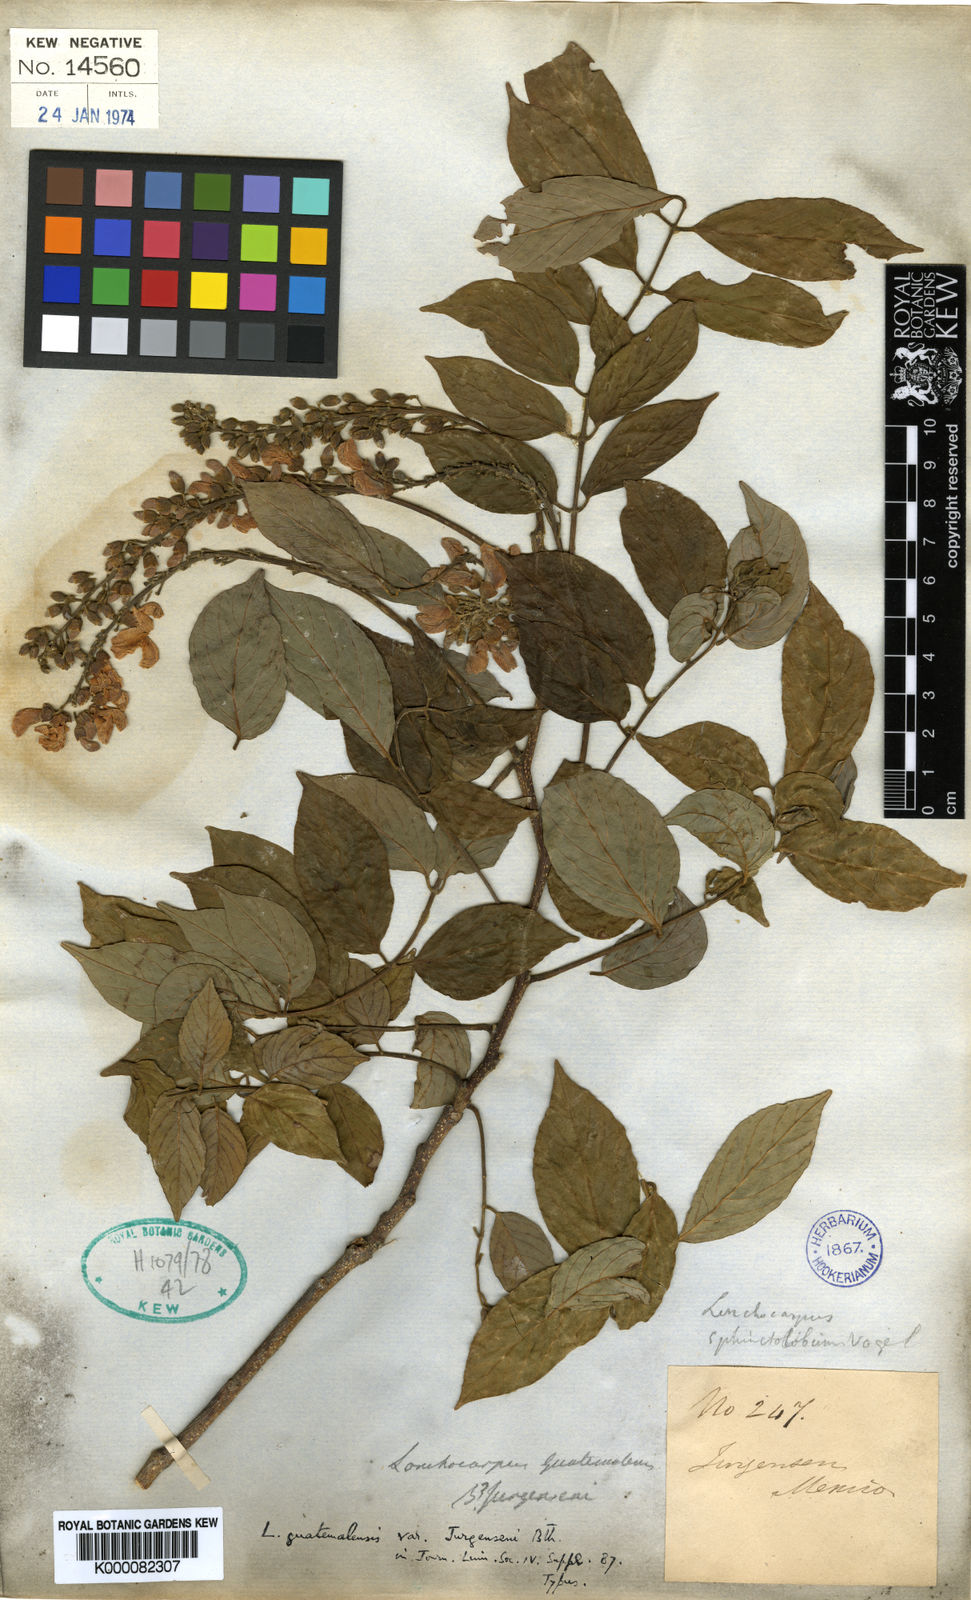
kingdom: Plantae
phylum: Tracheophyta
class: Magnoliopsida
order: Fabales
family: Fabaceae
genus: Lonchocarpus
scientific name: Lonchocarpus guatemalensis
